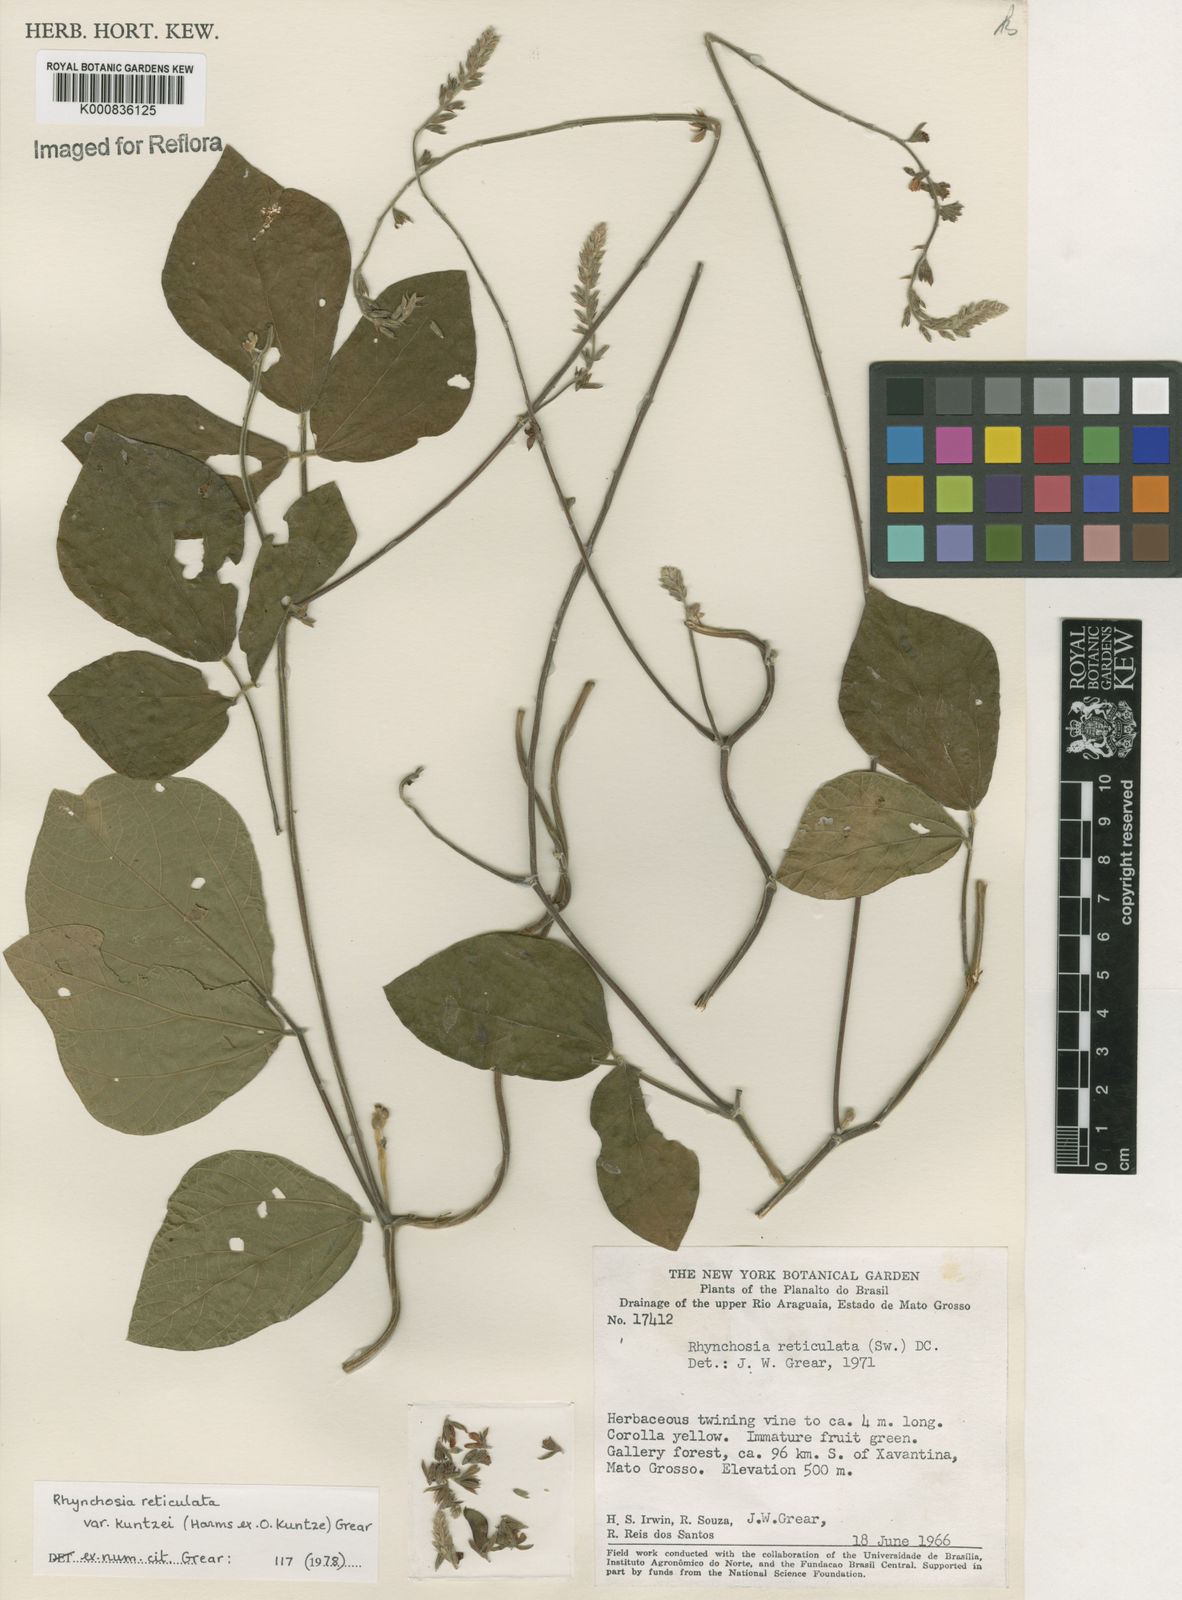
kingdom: Plantae
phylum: Tracheophyta
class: Magnoliopsida
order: Fabales
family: Fabaceae
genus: Rhynchosia
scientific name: Rhynchosia reticulata
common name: Pea withe
